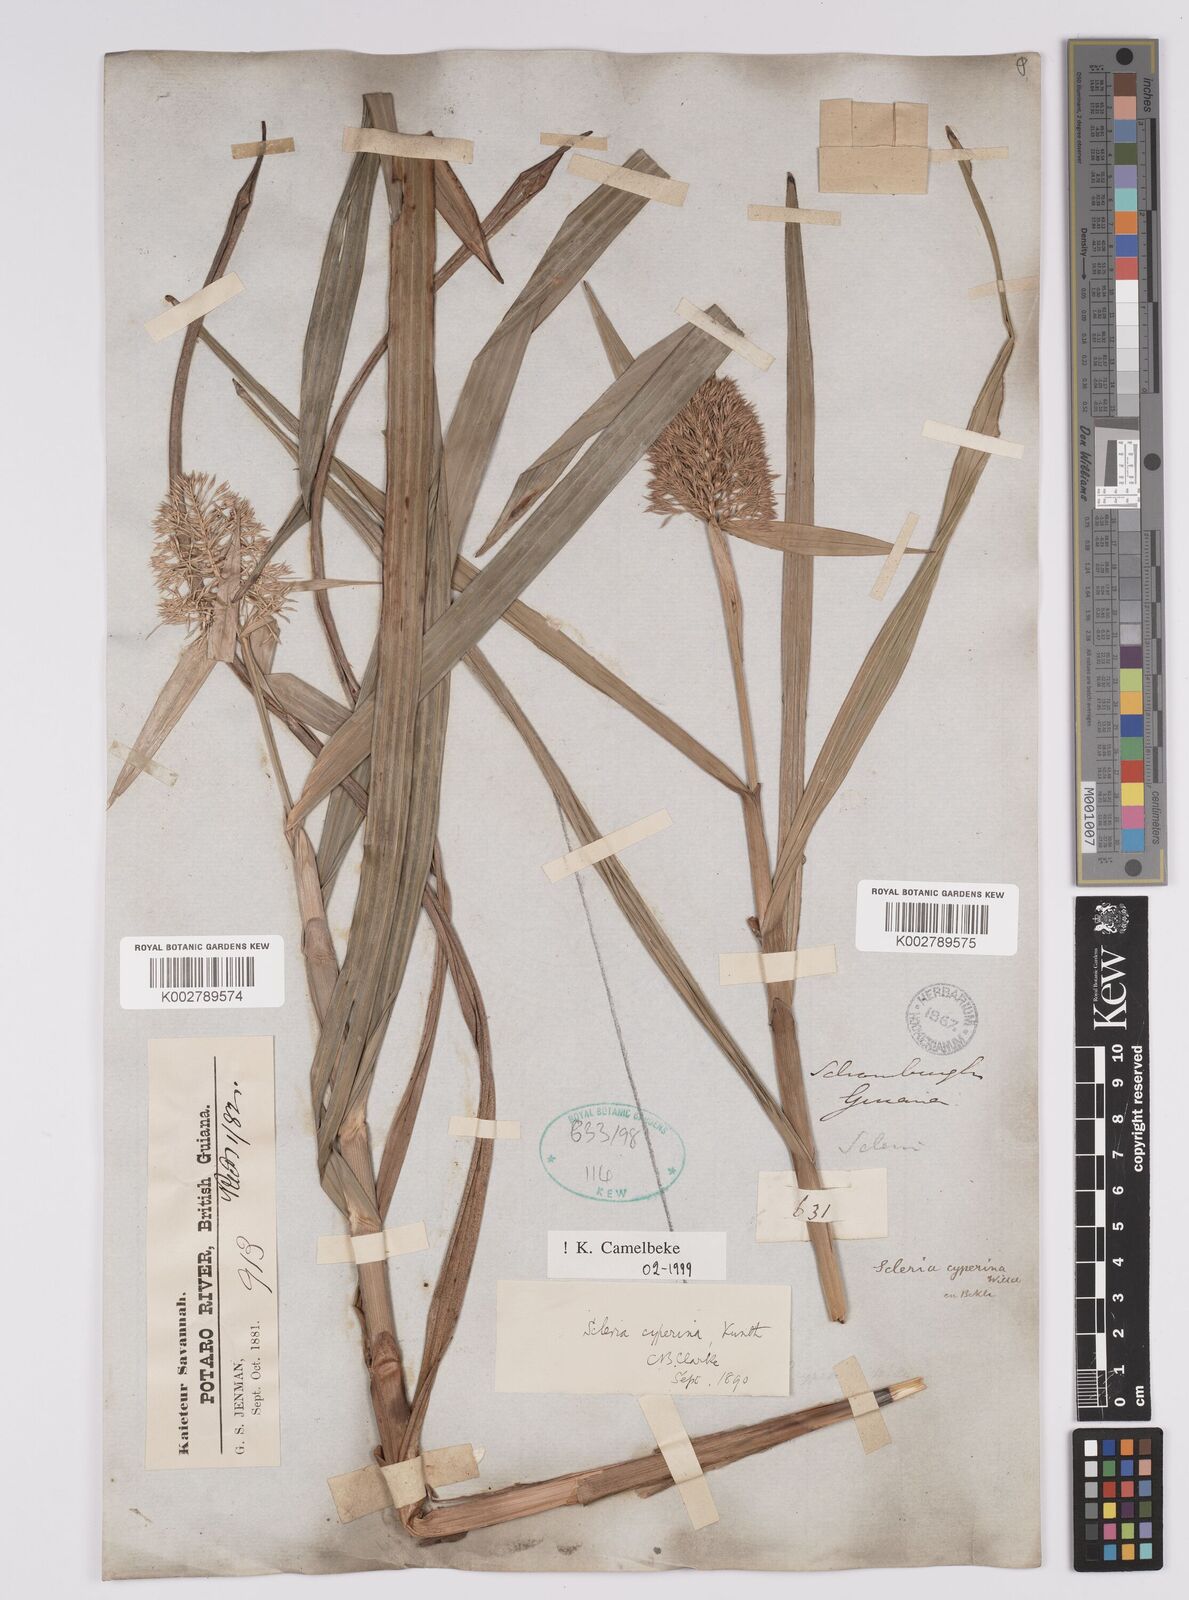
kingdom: Plantae
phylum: Tracheophyta
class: Liliopsida
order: Poales
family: Cyperaceae
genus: Scleria
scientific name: Scleria cyperina
